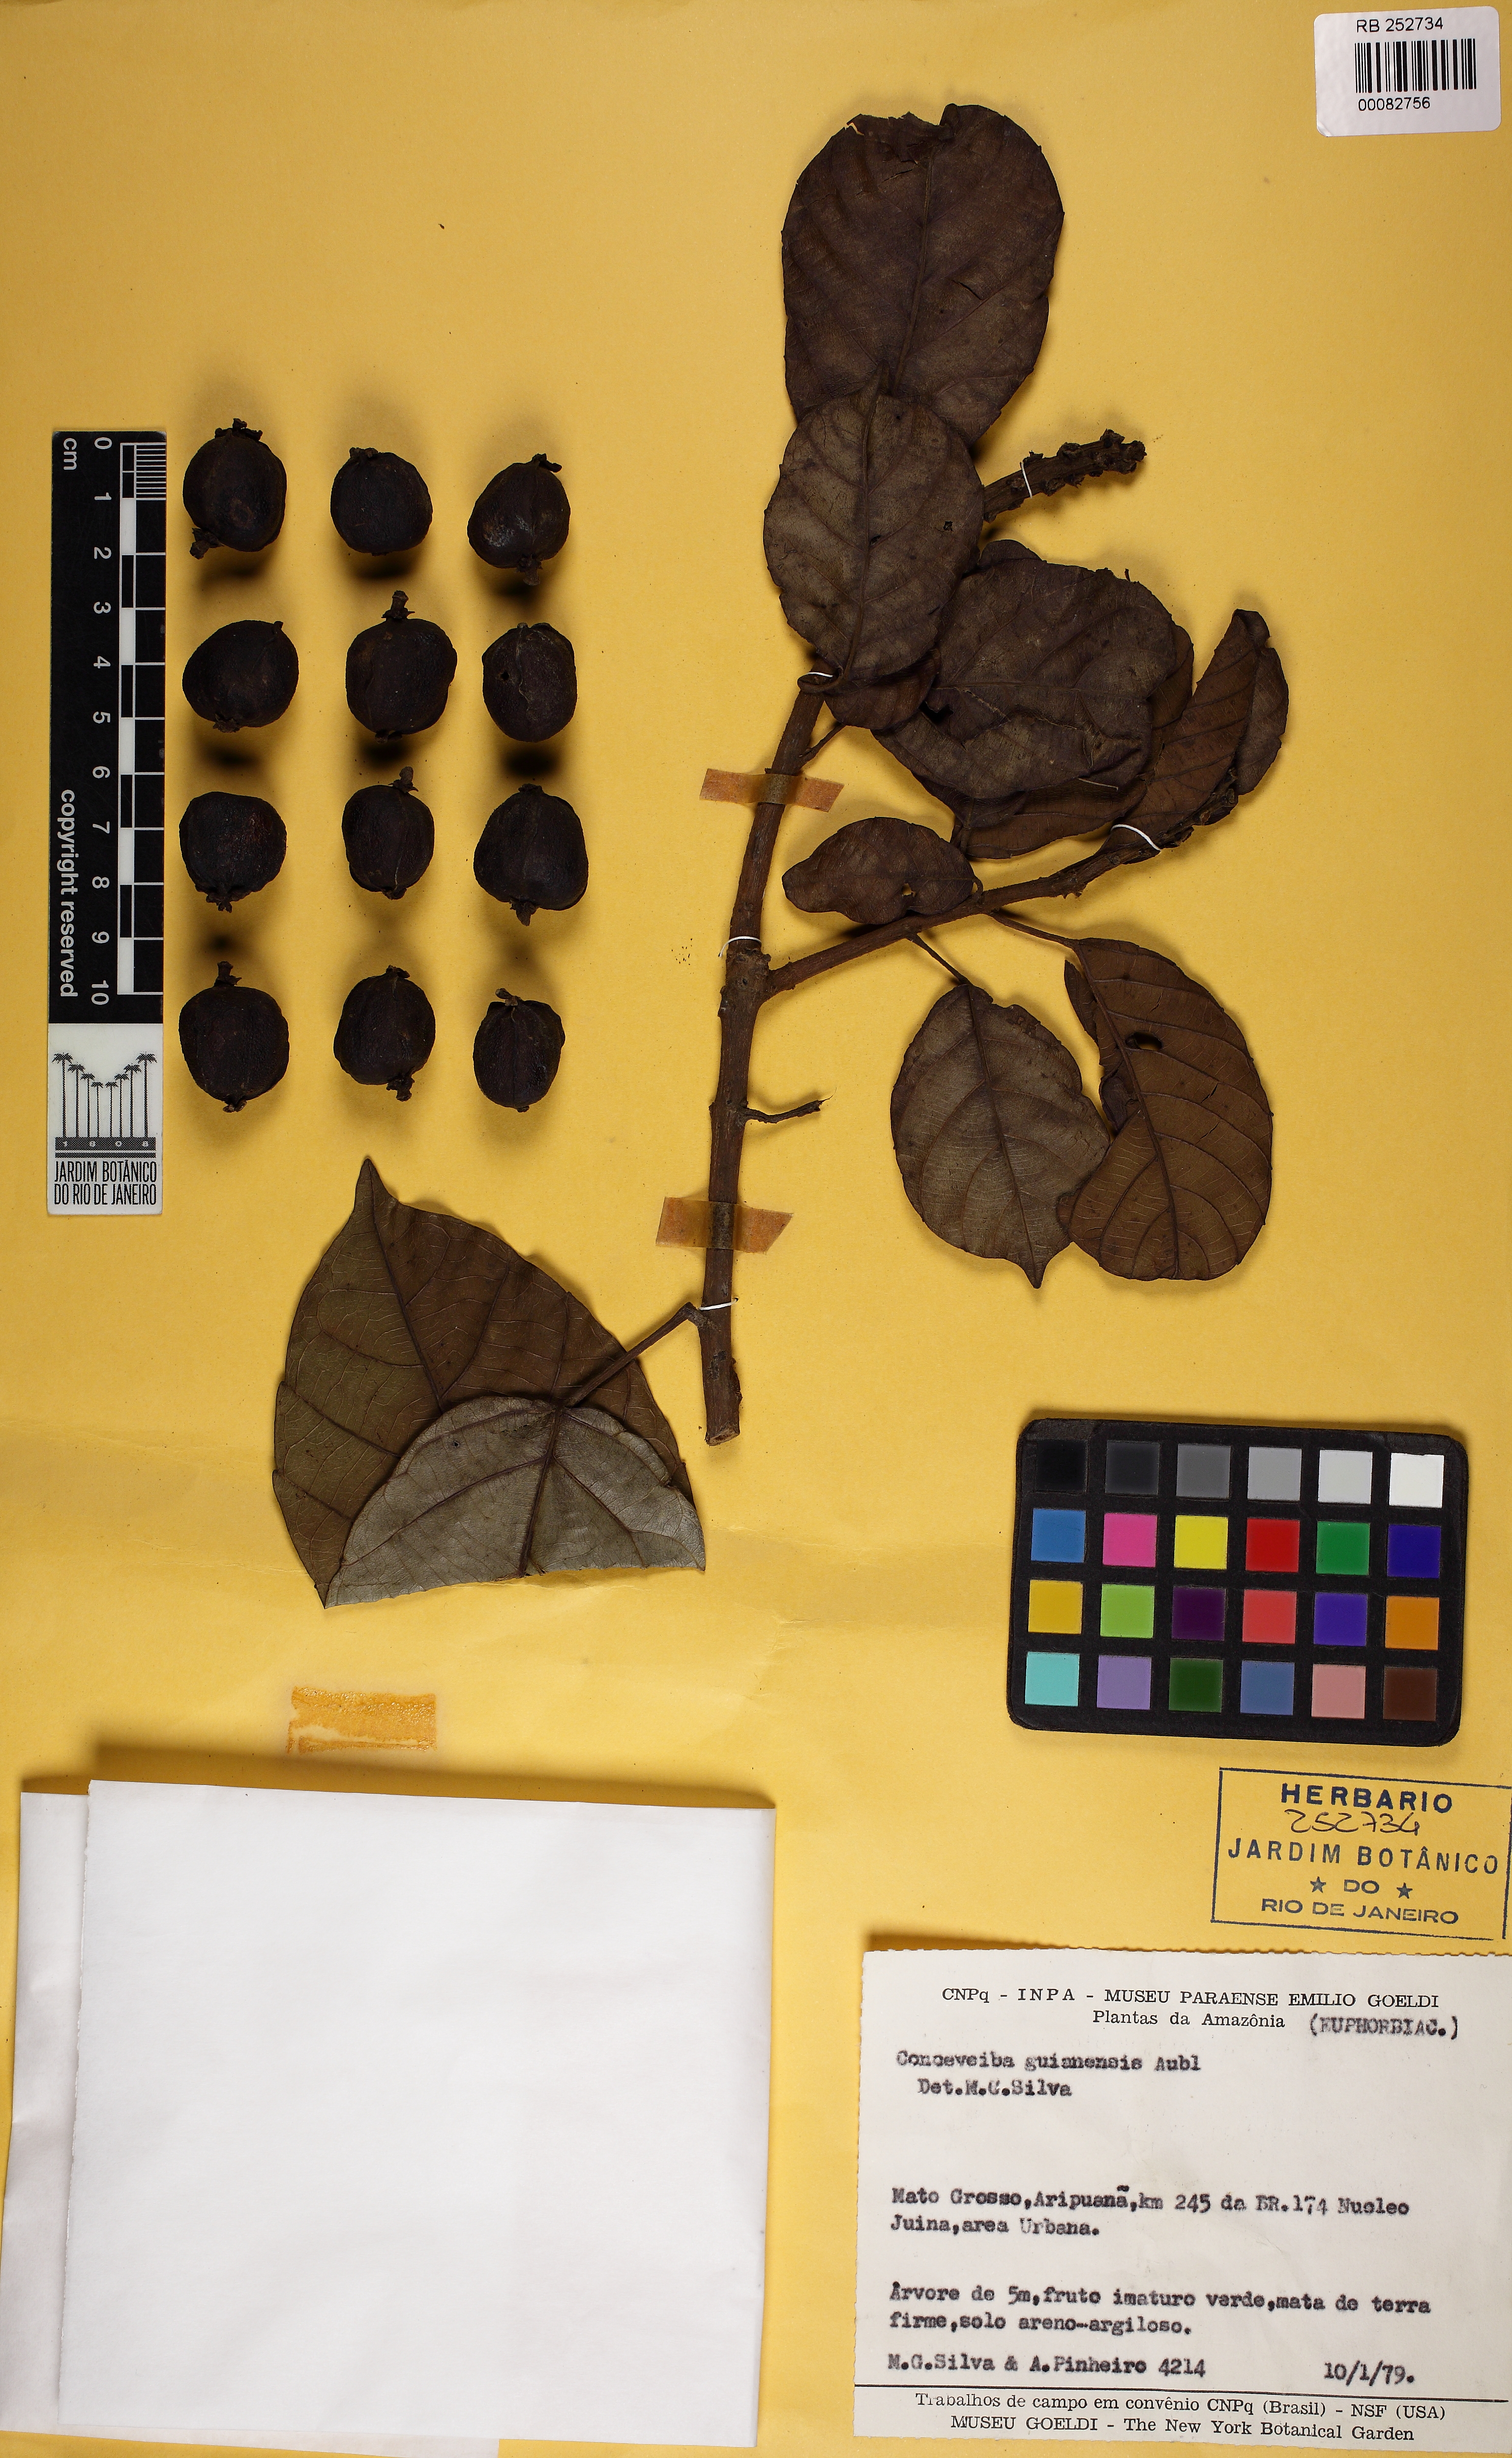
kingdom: Plantae
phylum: Tracheophyta
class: Magnoliopsida
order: Malpighiales
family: Euphorbiaceae
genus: Conceveiba
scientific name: Conceveiba guianensis
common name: Poatoru
